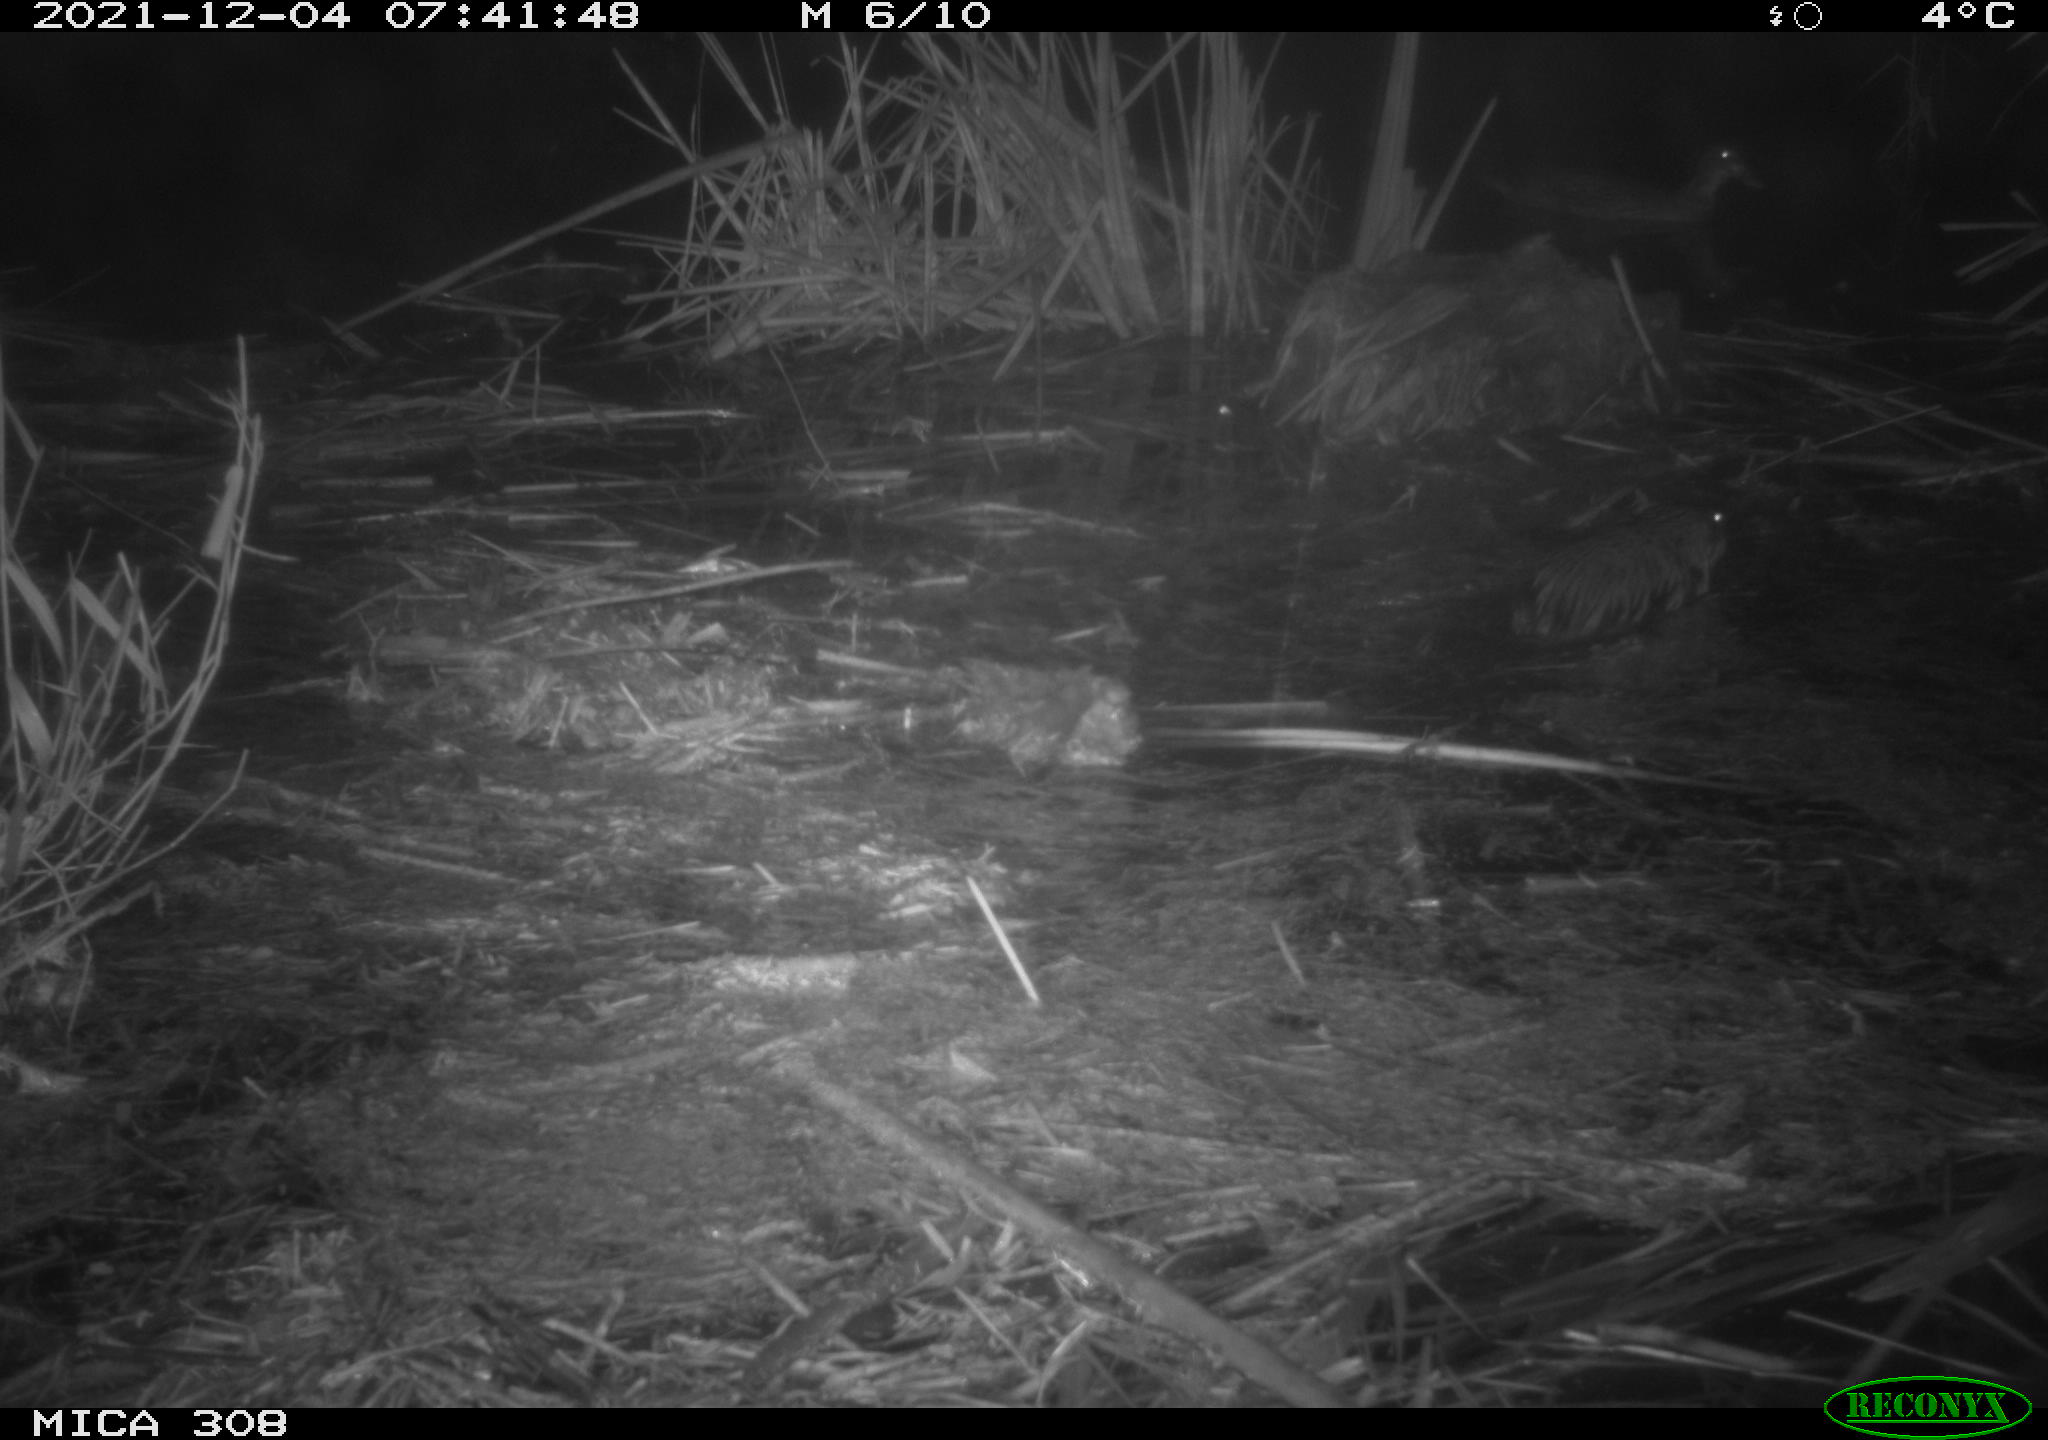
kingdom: Animalia
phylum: Chordata
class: Mammalia
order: Rodentia
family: Cricetidae
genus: Ondatra
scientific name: Ondatra zibethicus
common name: Muskrat
